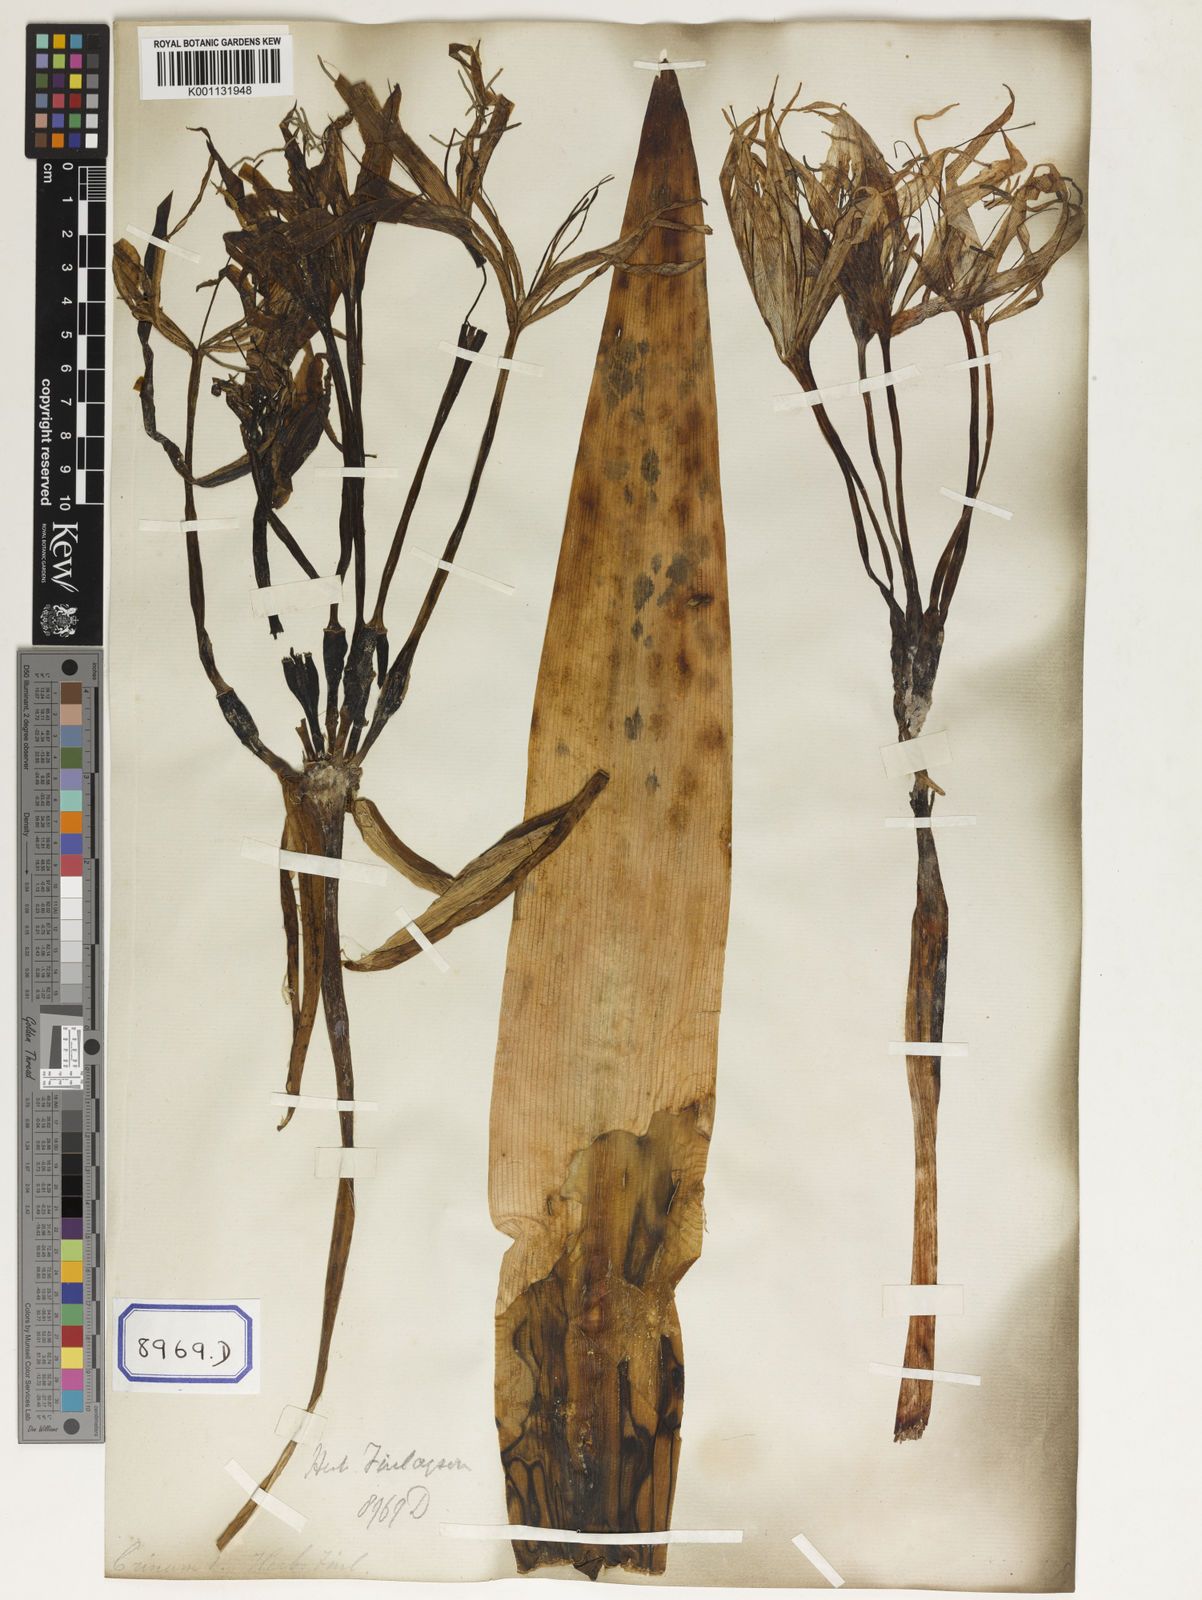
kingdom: Plantae
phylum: Tracheophyta
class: Liliopsida
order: Asparagales
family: Amaryllidaceae
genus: Crinum
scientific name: Crinum asiaticum
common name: Poisonbulb
